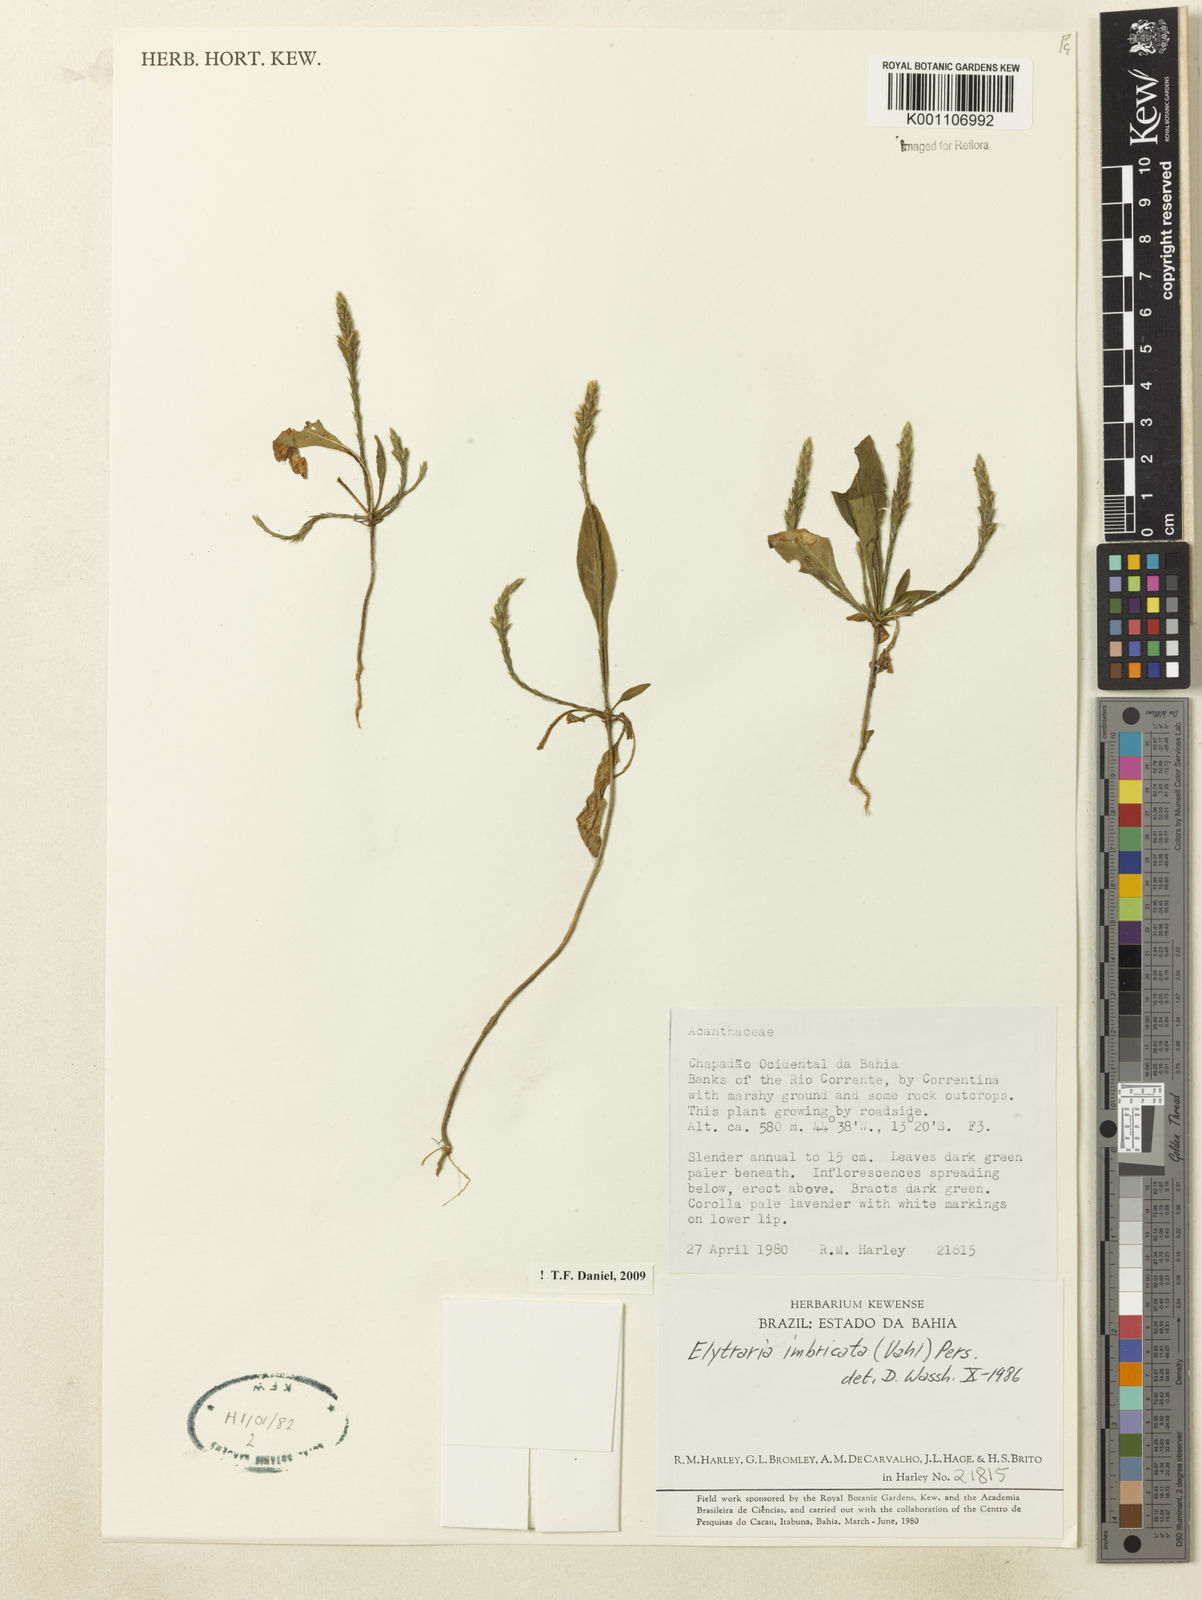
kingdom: Plantae
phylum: Tracheophyta
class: Magnoliopsida
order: Lamiales
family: Acanthaceae
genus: Elytraria
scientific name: Elytraria imbricata
